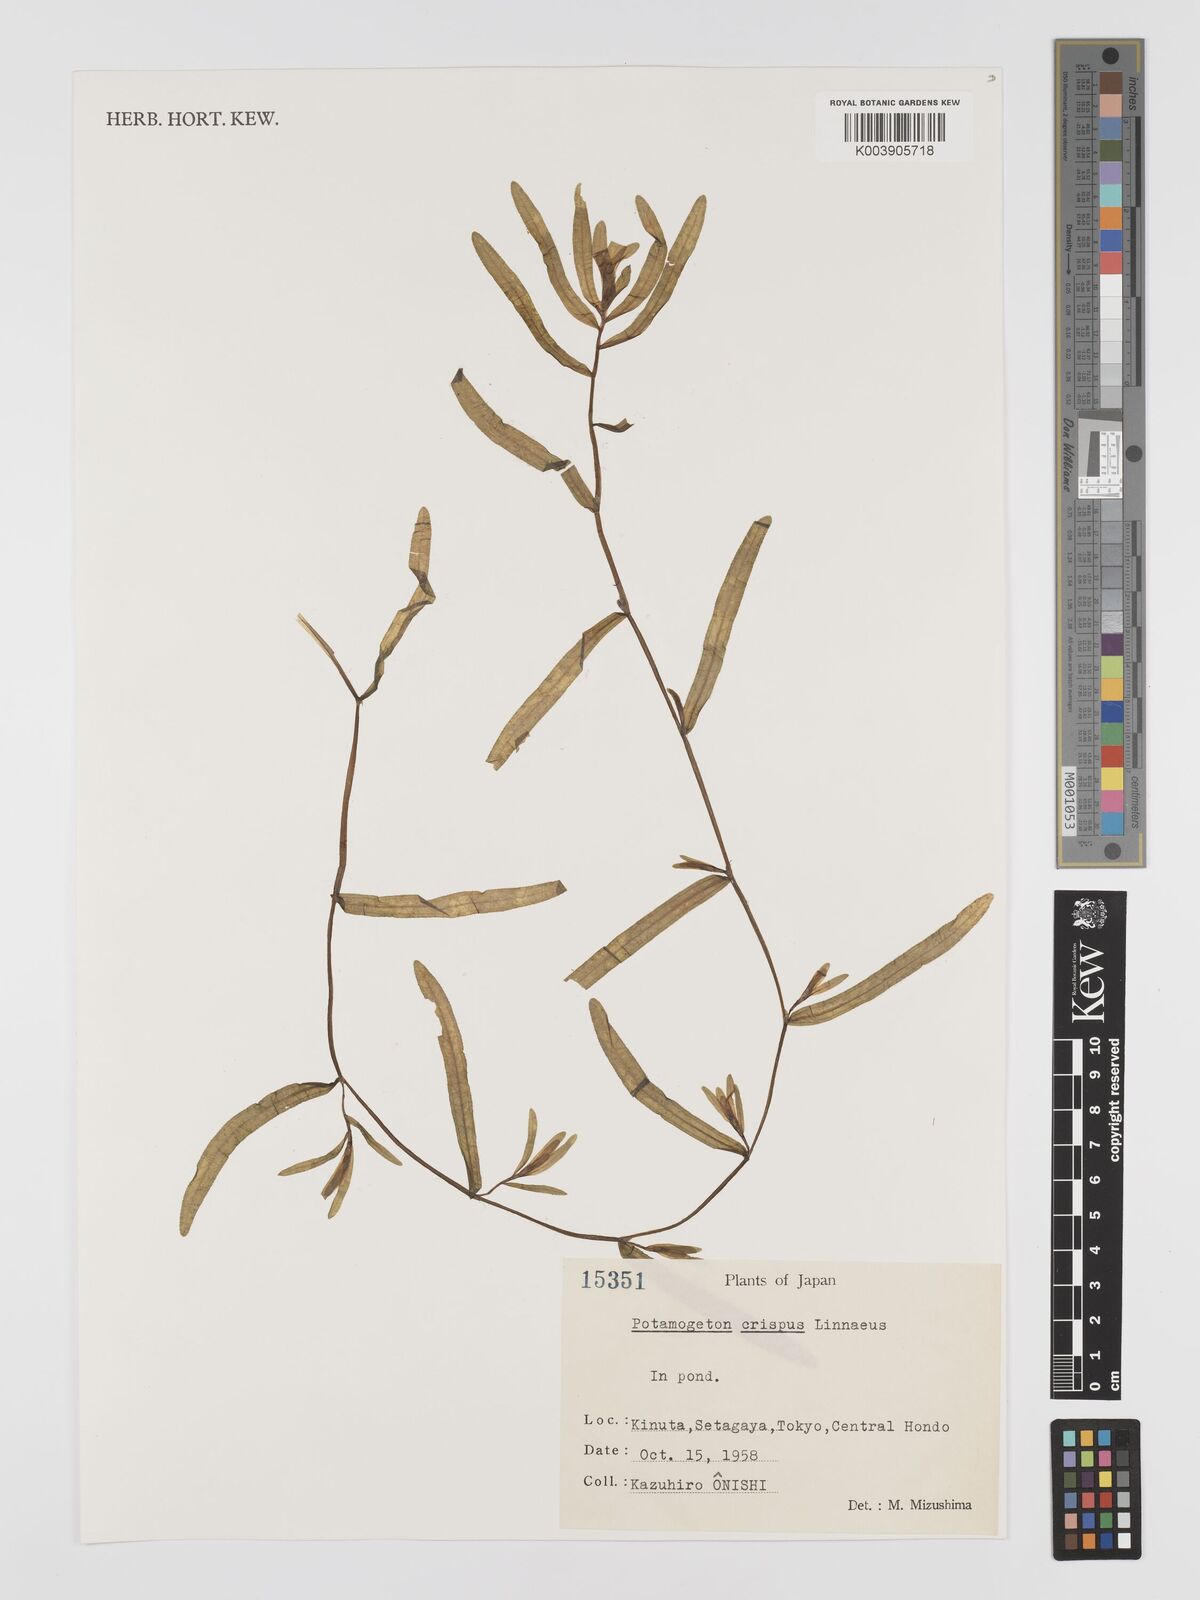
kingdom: Plantae
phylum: Tracheophyta
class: Liliopsida
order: Alismatales
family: Potamogetonaceae
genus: Potamogeton
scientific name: Potamogeton crispus
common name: Curled pondweed
